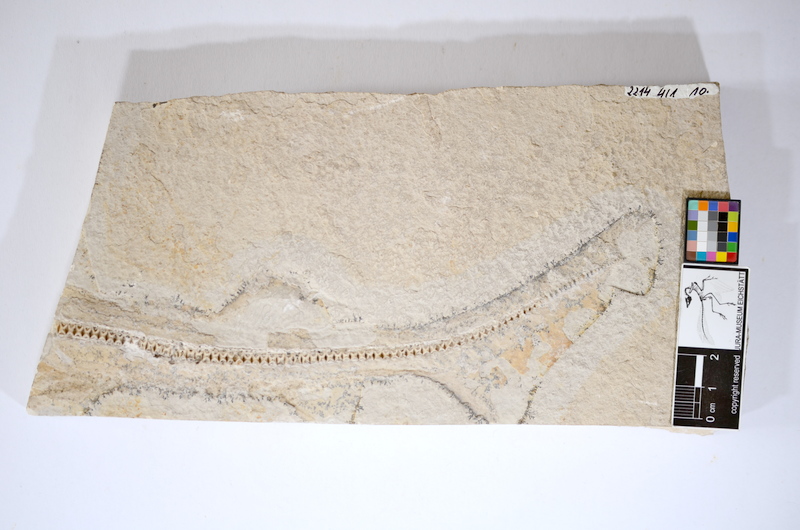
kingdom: Animalia
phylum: Chordata
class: Elasmobranchii
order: Carcharhiniformes
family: Scyliorhinidae
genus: Palaeoscyllium
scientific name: Palaeoscyllium formosum
